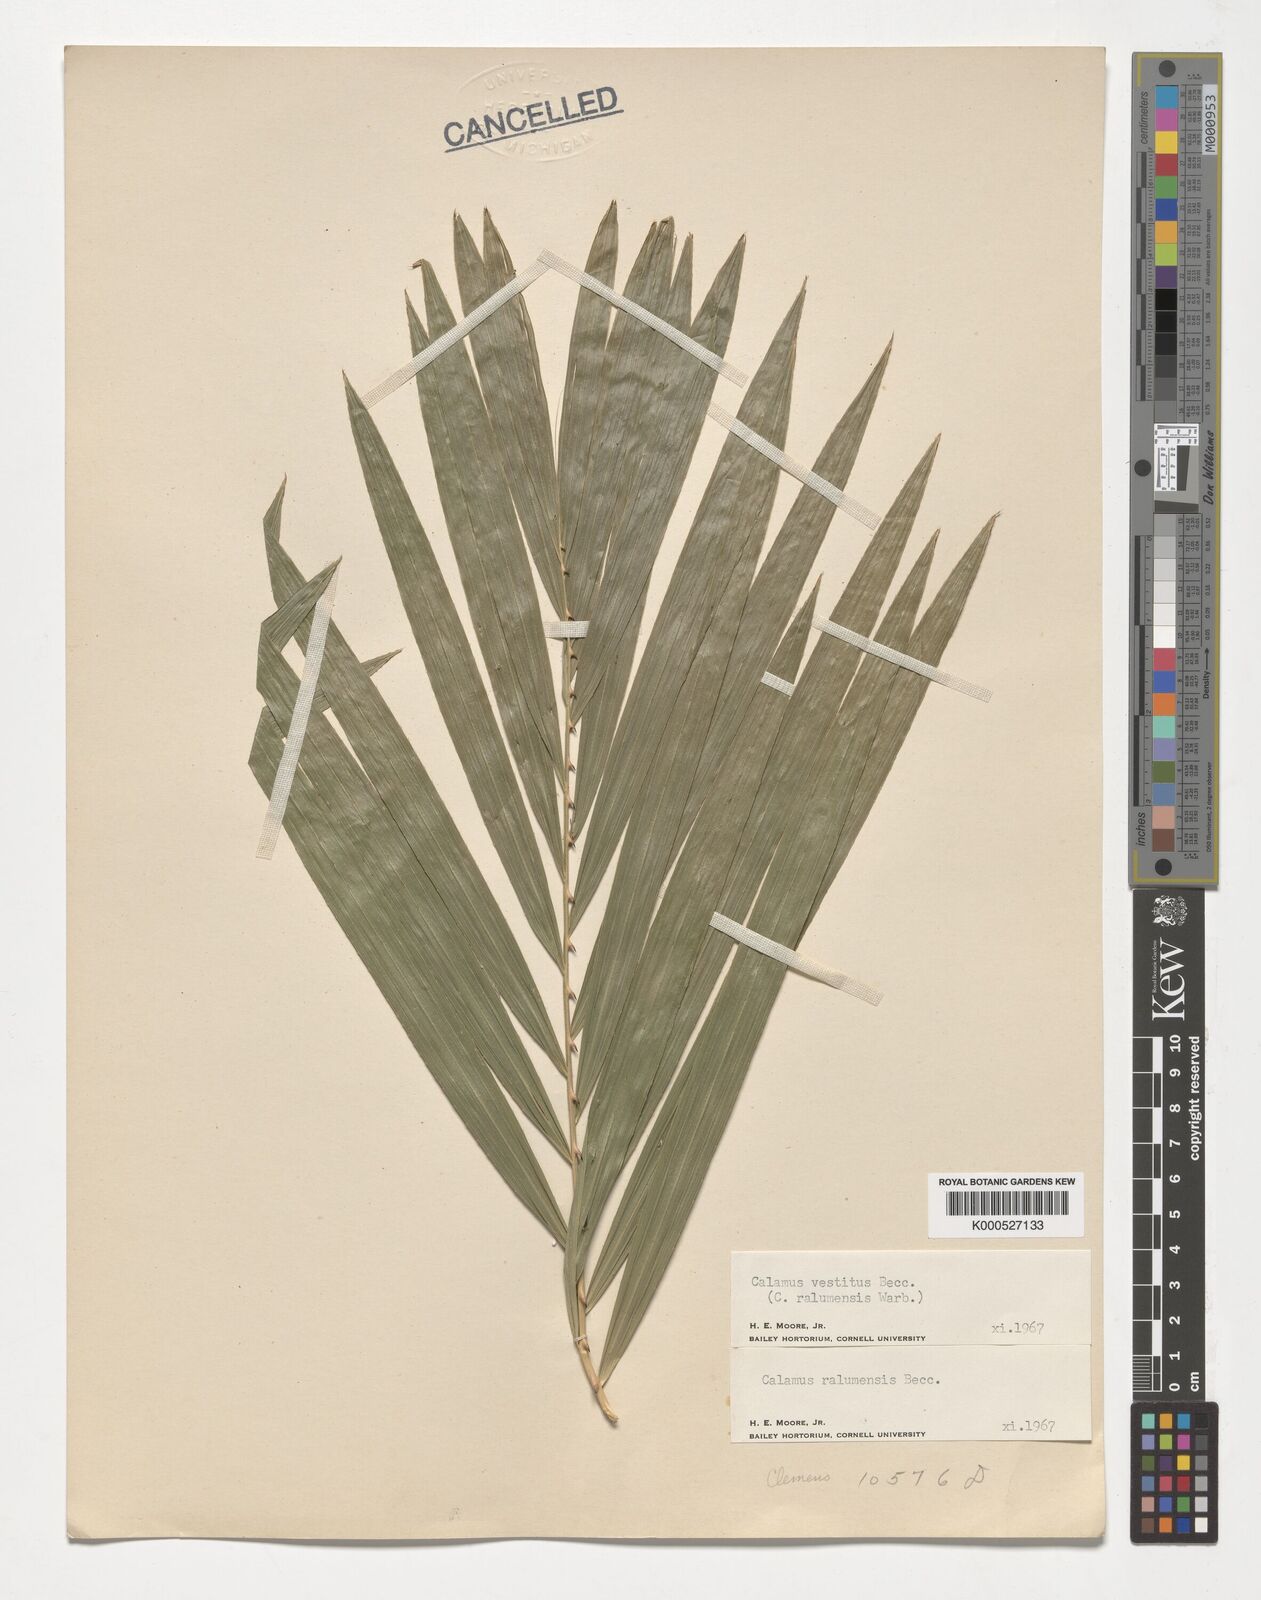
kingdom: Plantae
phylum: Tracheophyta
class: Liliopsida
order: Arecales
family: Arecaceae
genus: Calamus
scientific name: Calamus vestitus
